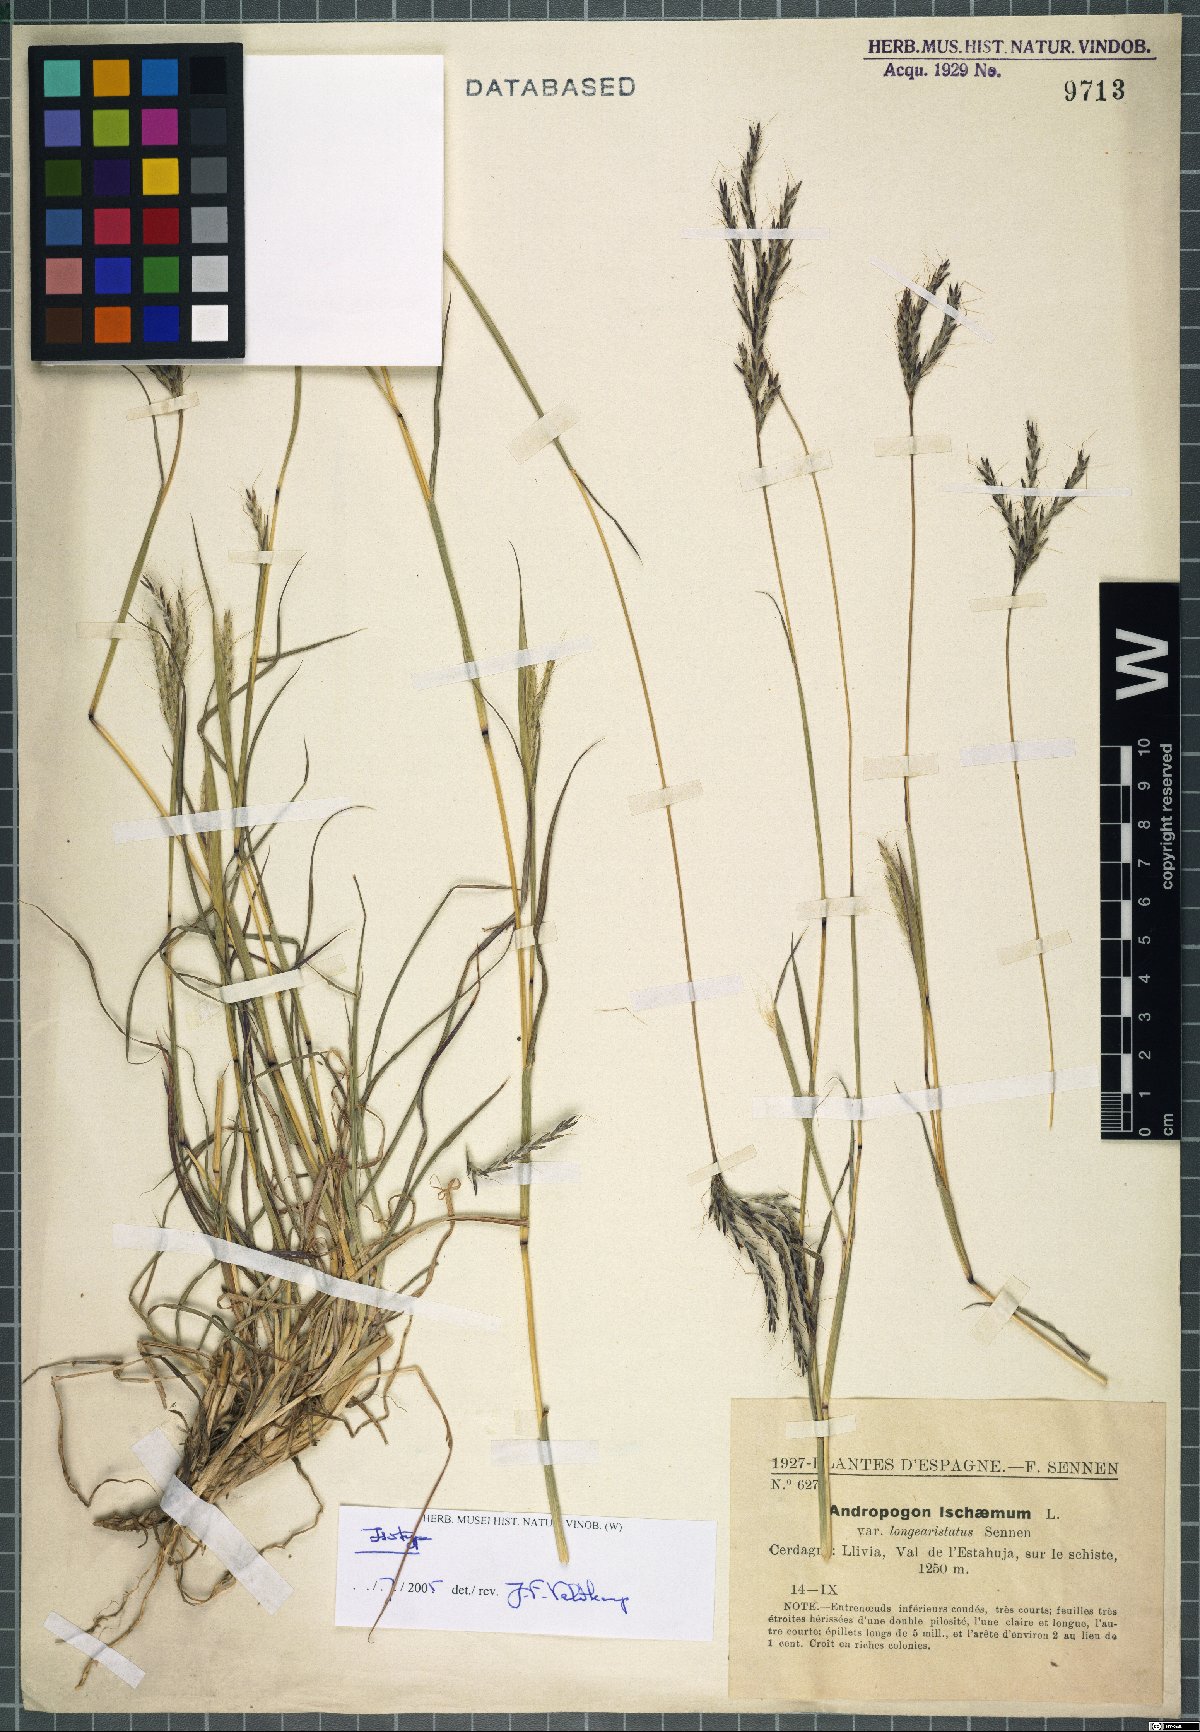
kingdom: Plantae
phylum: Tracheophyta
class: Liliopsida
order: Poales
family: Poaceae
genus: Andropogon
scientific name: Andropogon ischaemum
